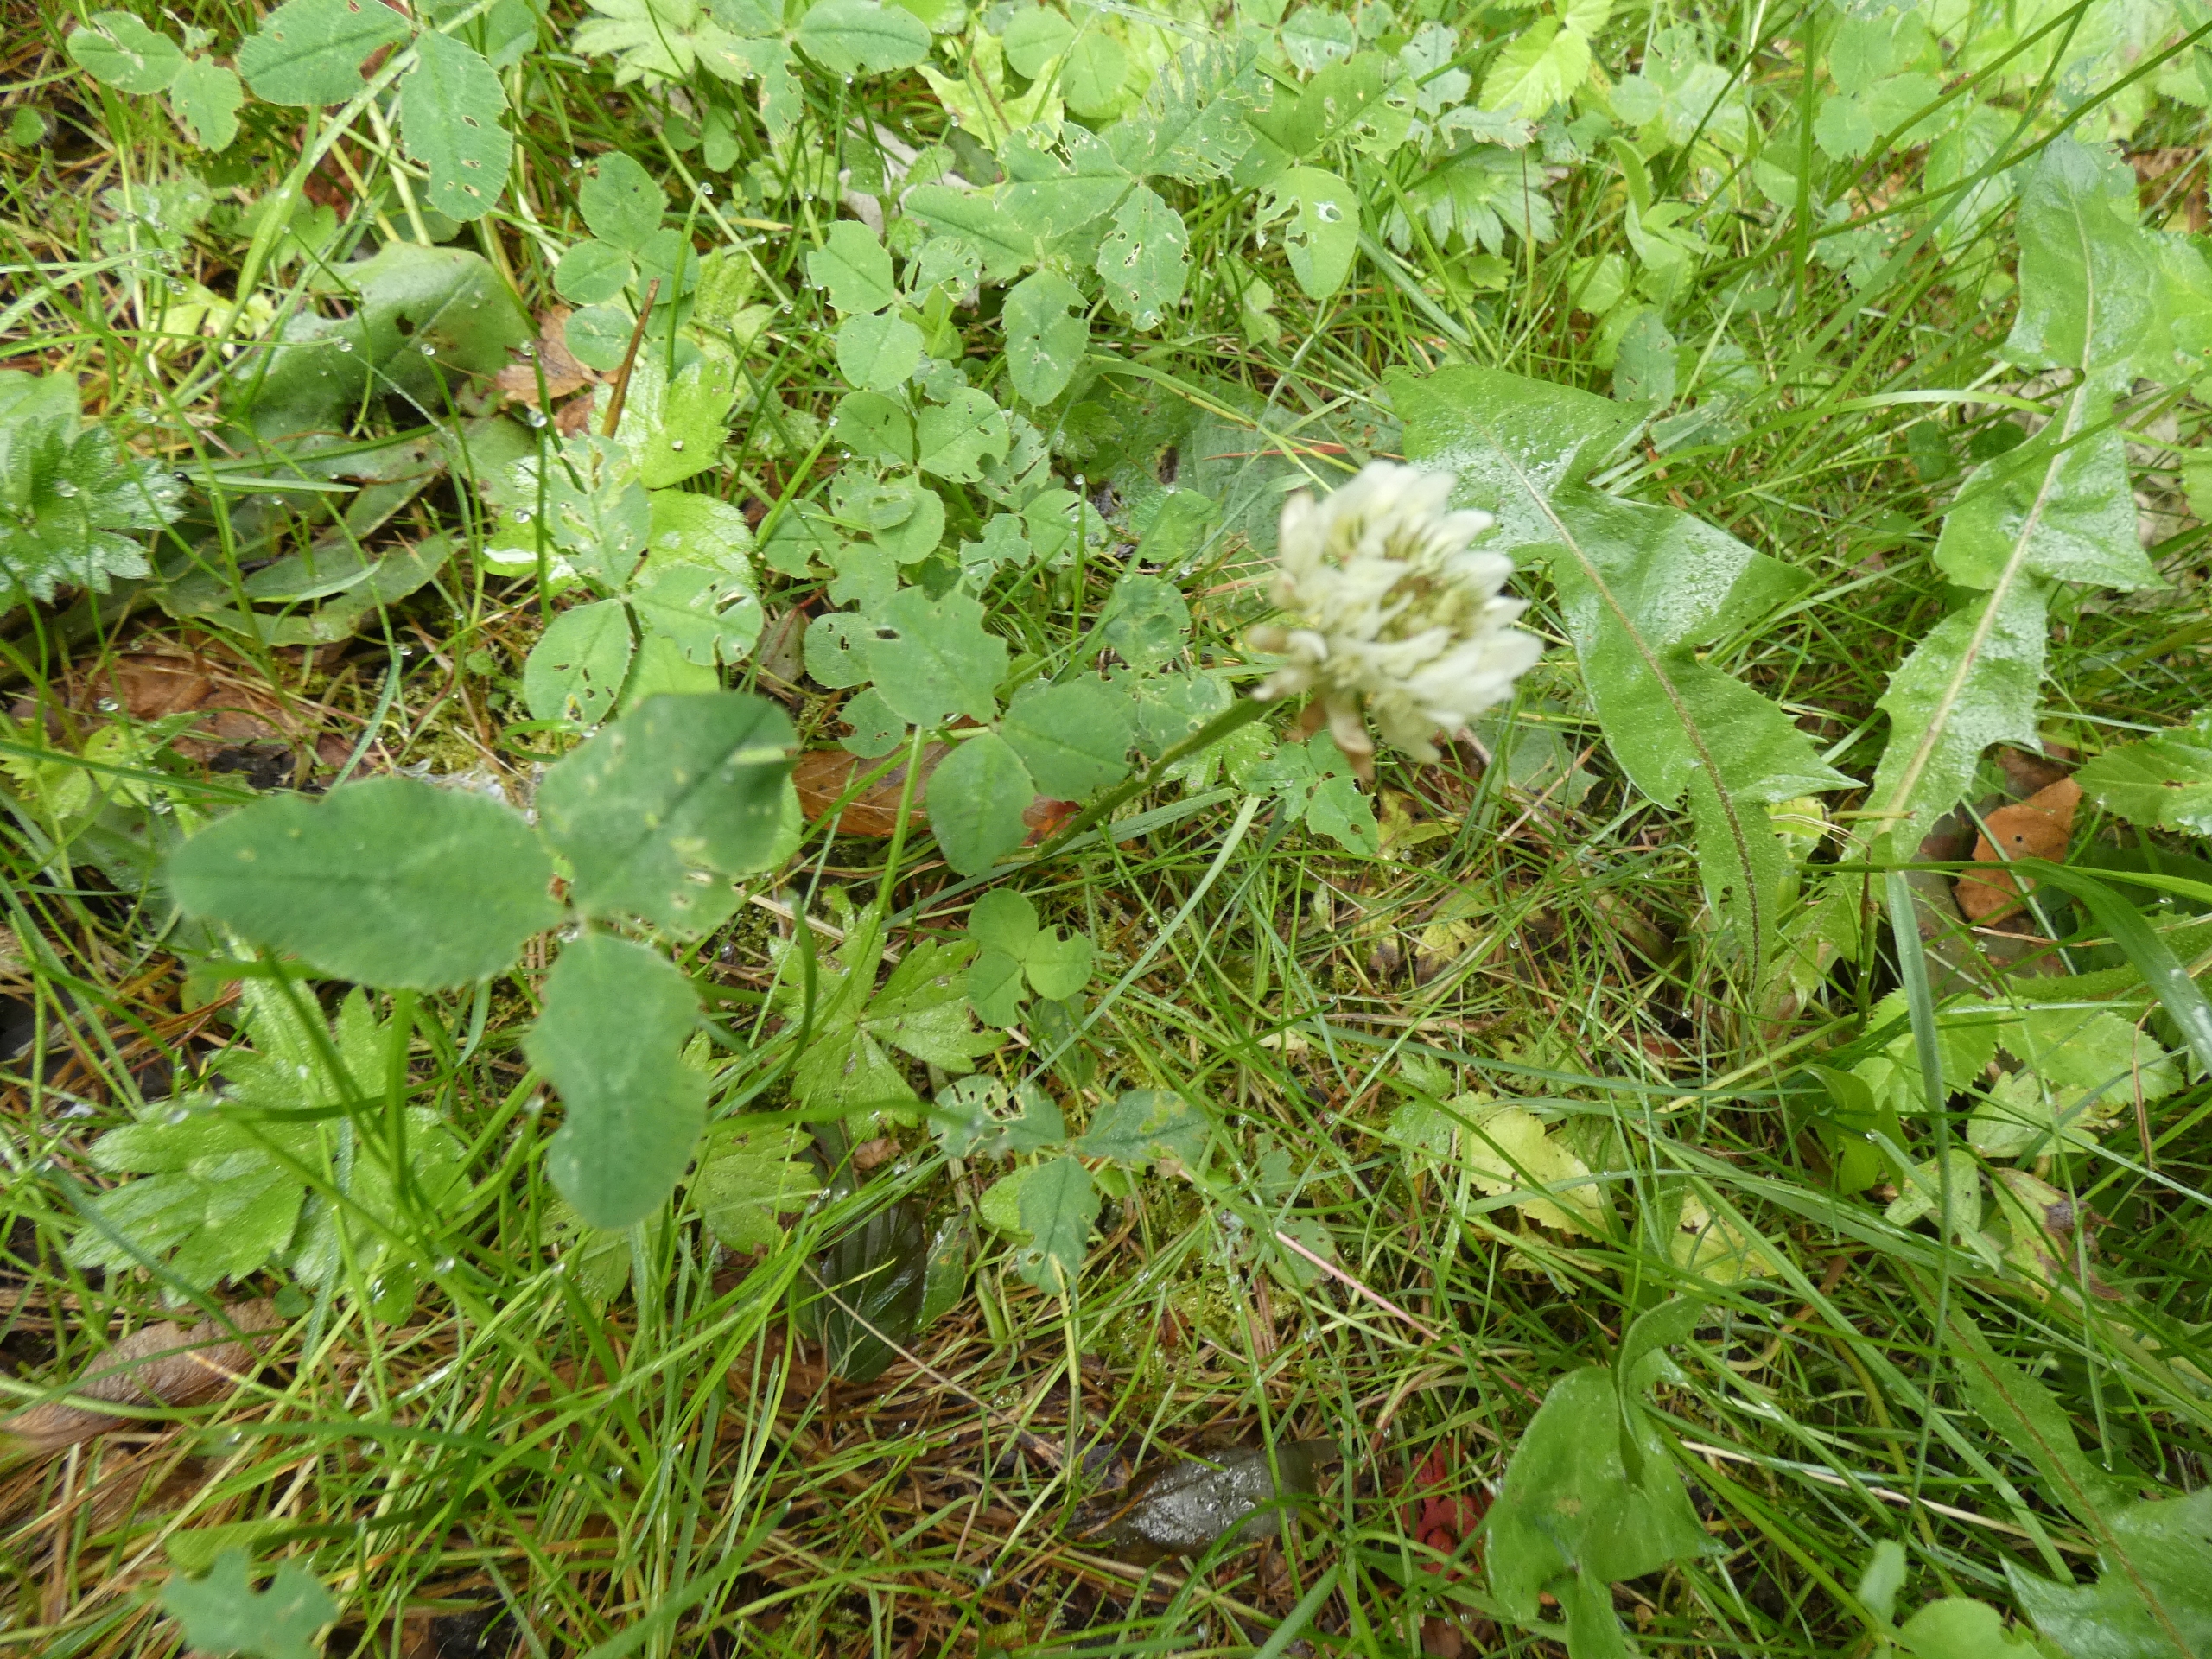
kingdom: Plantae
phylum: Tracheophyta
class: Magnoliopsida
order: Fabales
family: Fabaceae
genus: Trifolium
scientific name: Trifolium repens
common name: Hvid-kløver
